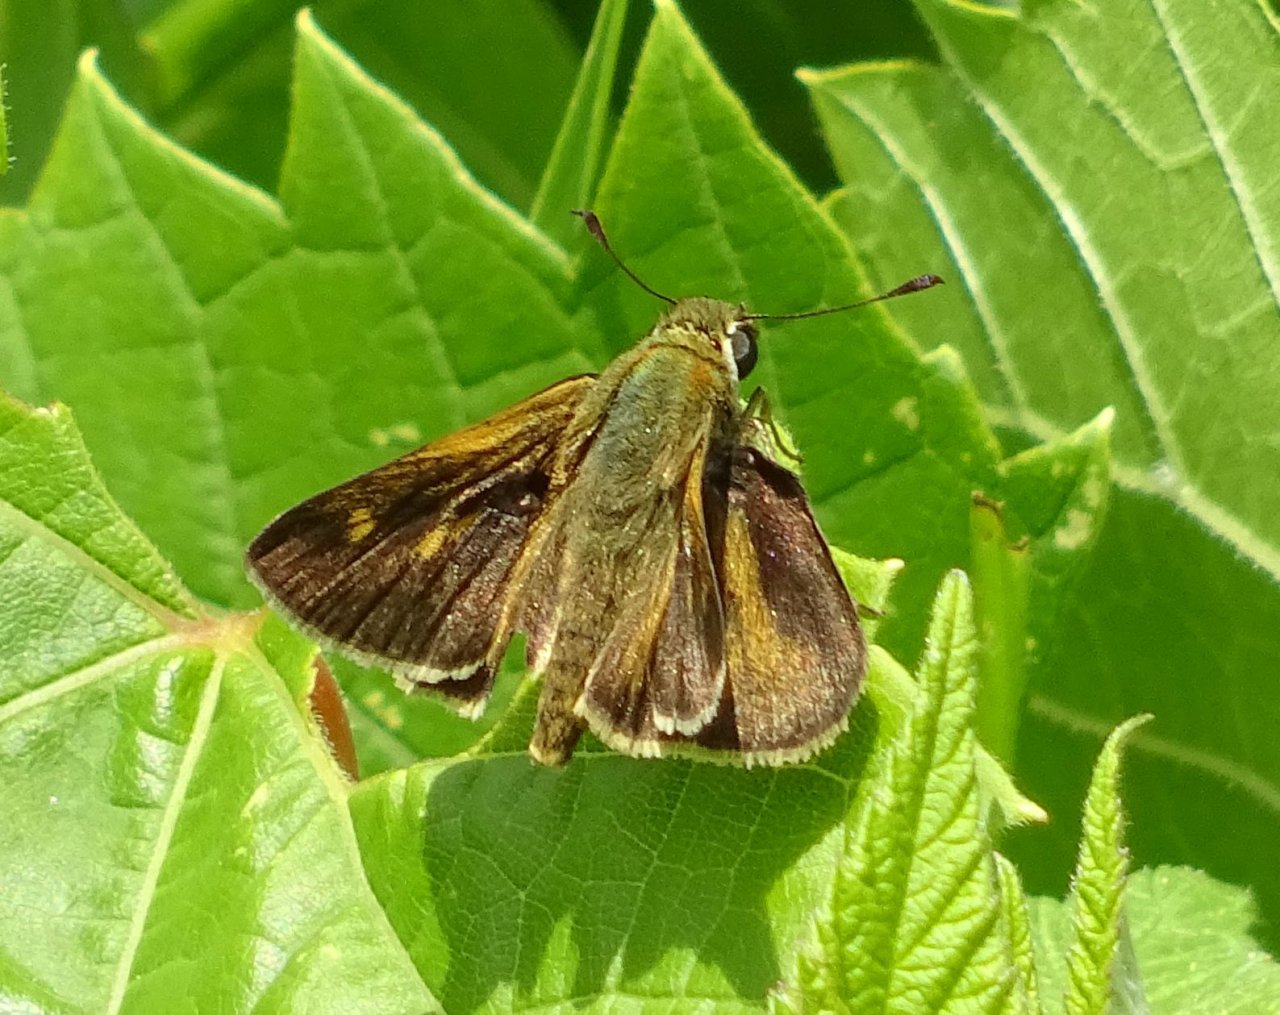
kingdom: Animalia
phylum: Arthropoda
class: Insecta
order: Lepidoptera
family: Hesperiidae
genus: Polites
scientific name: Polites egeremet
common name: Northern Broken-Dash
